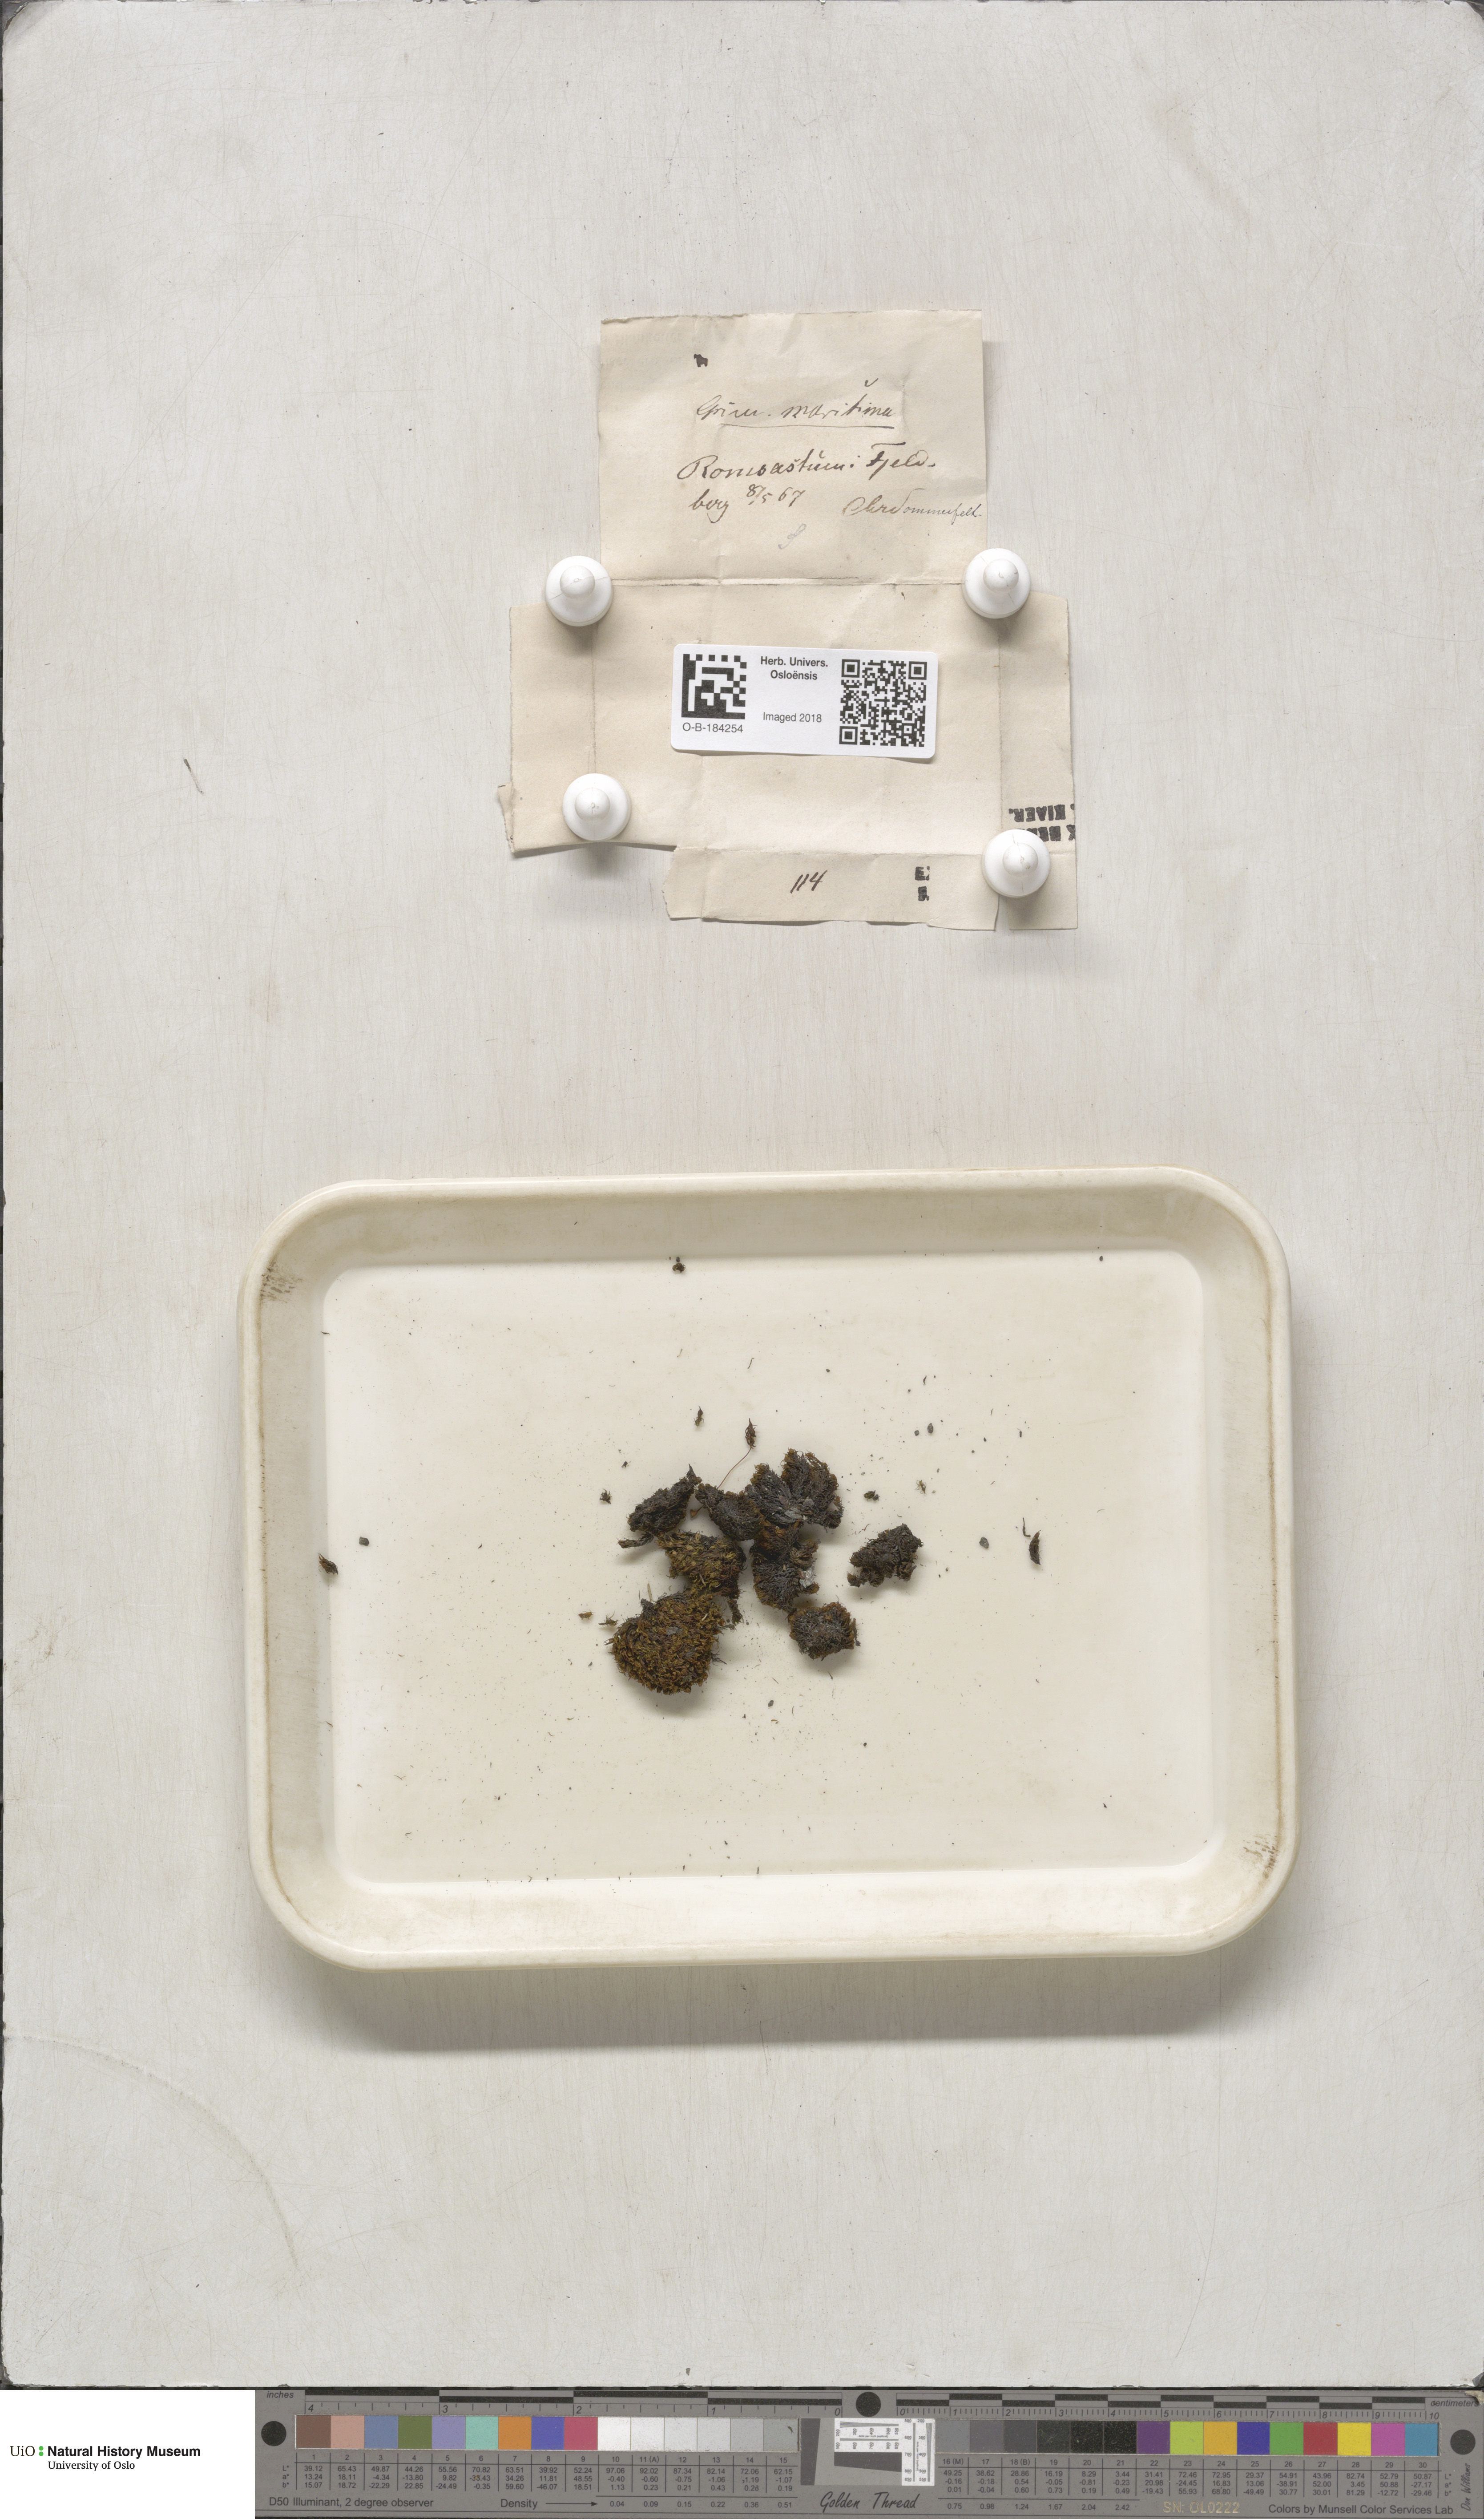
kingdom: Plantae
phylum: Bryophyta
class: Bryopsida
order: Grimmiales
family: Grimmiaceae
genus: Schistidium
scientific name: Schistidium maritimum
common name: Seaside bloom moss
